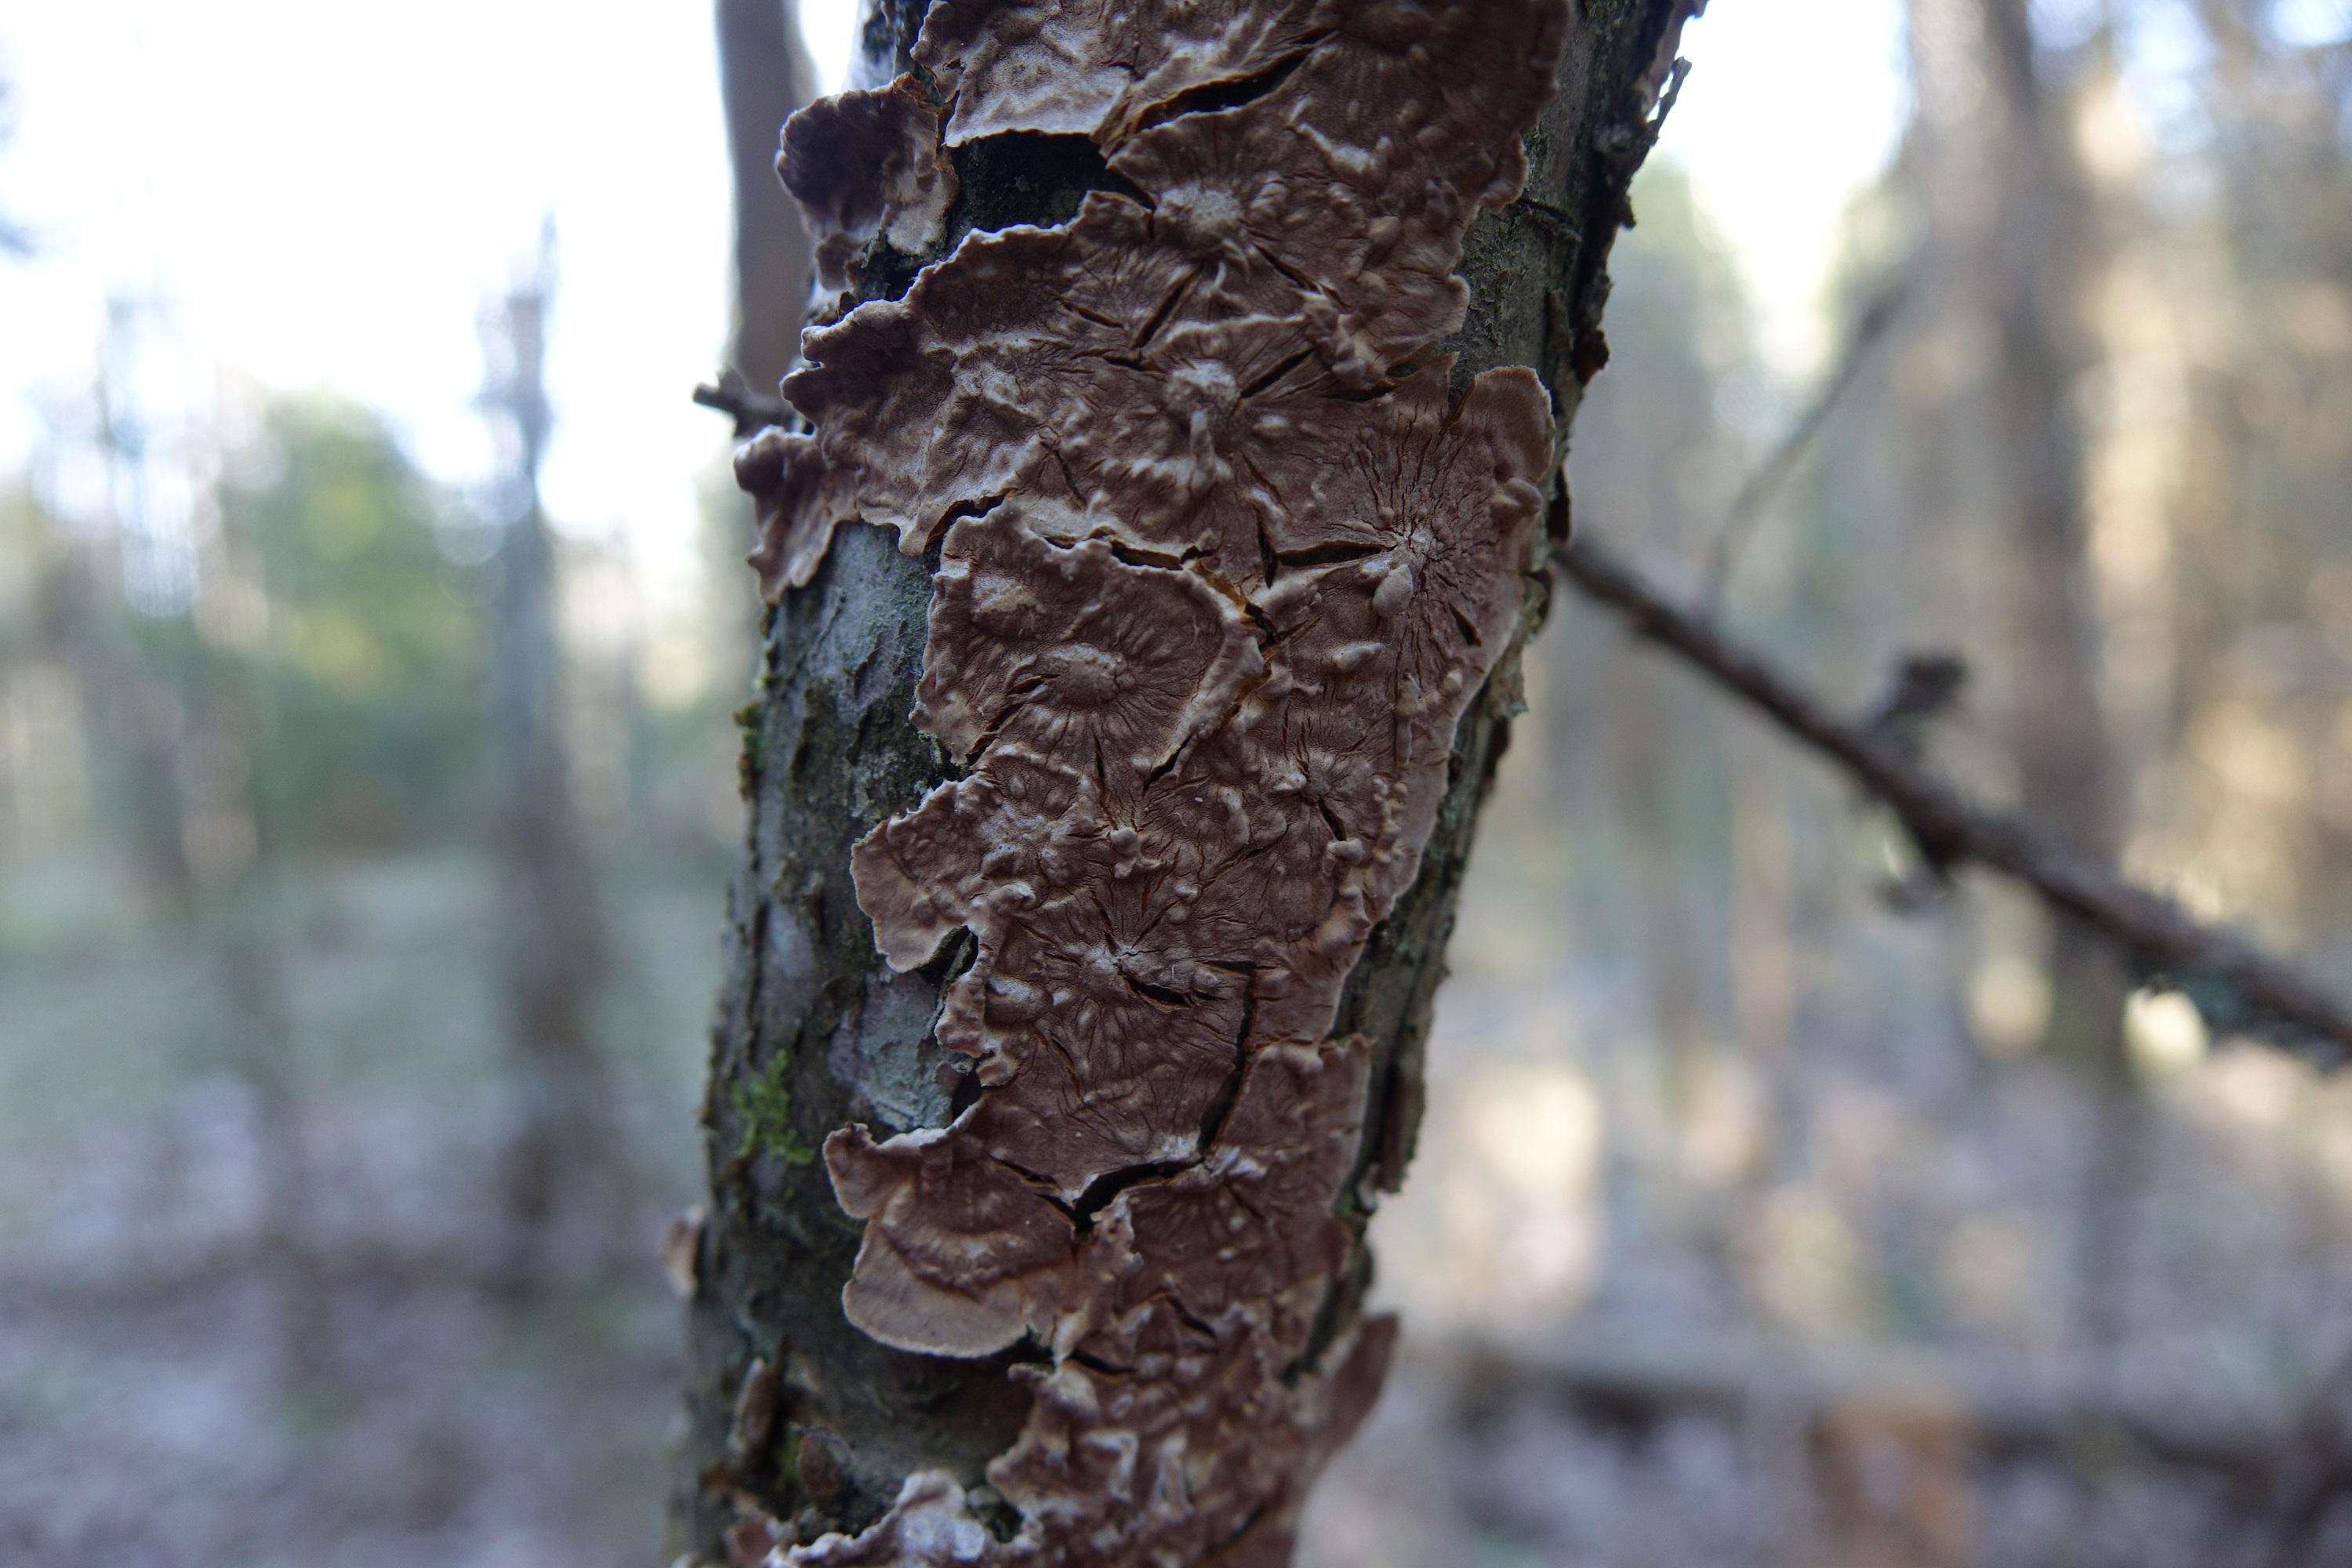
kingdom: Fungi
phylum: Basidiomycota
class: Agaricomycetes
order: Russulales
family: Stereaceae
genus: Stereum
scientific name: Stereum rugosum
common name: Bleeding broadleaf crust
